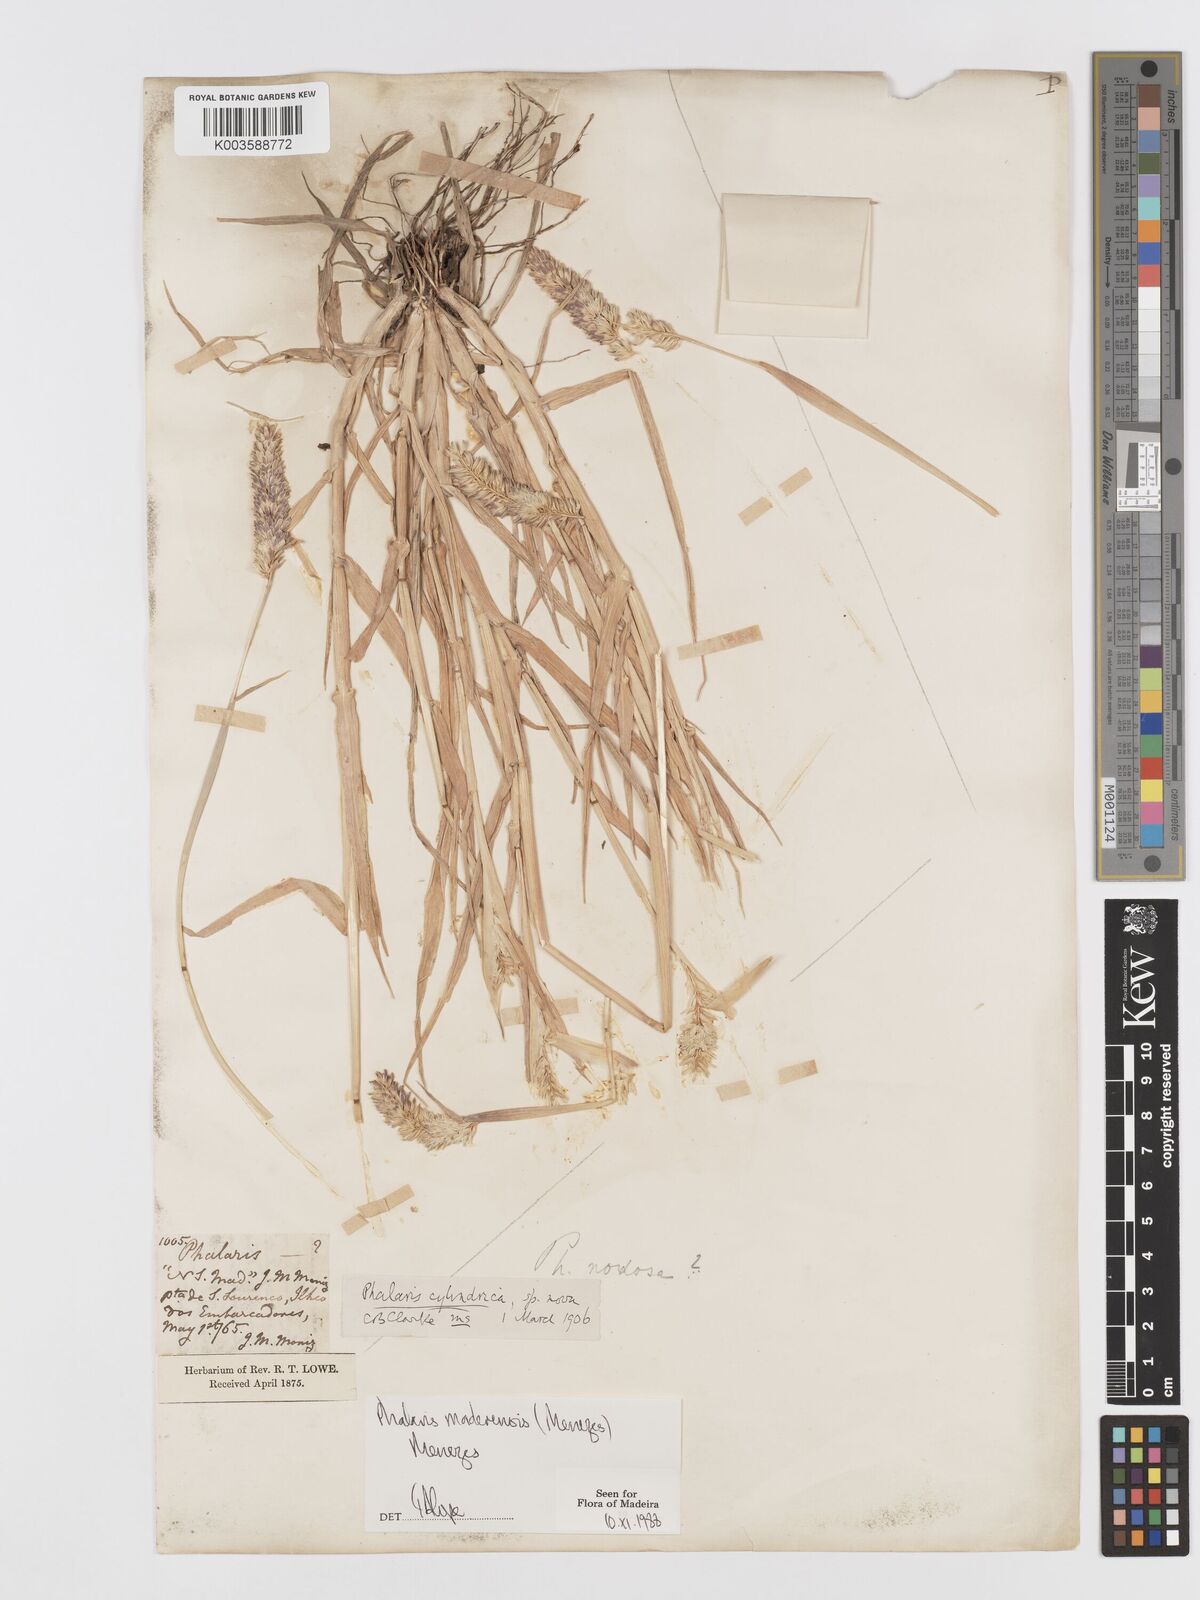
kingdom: Plantae
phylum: Tracheophyta
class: Liliopsida
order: Poales
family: Poaceae
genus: Phalaris
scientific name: Phalaris maderensis
